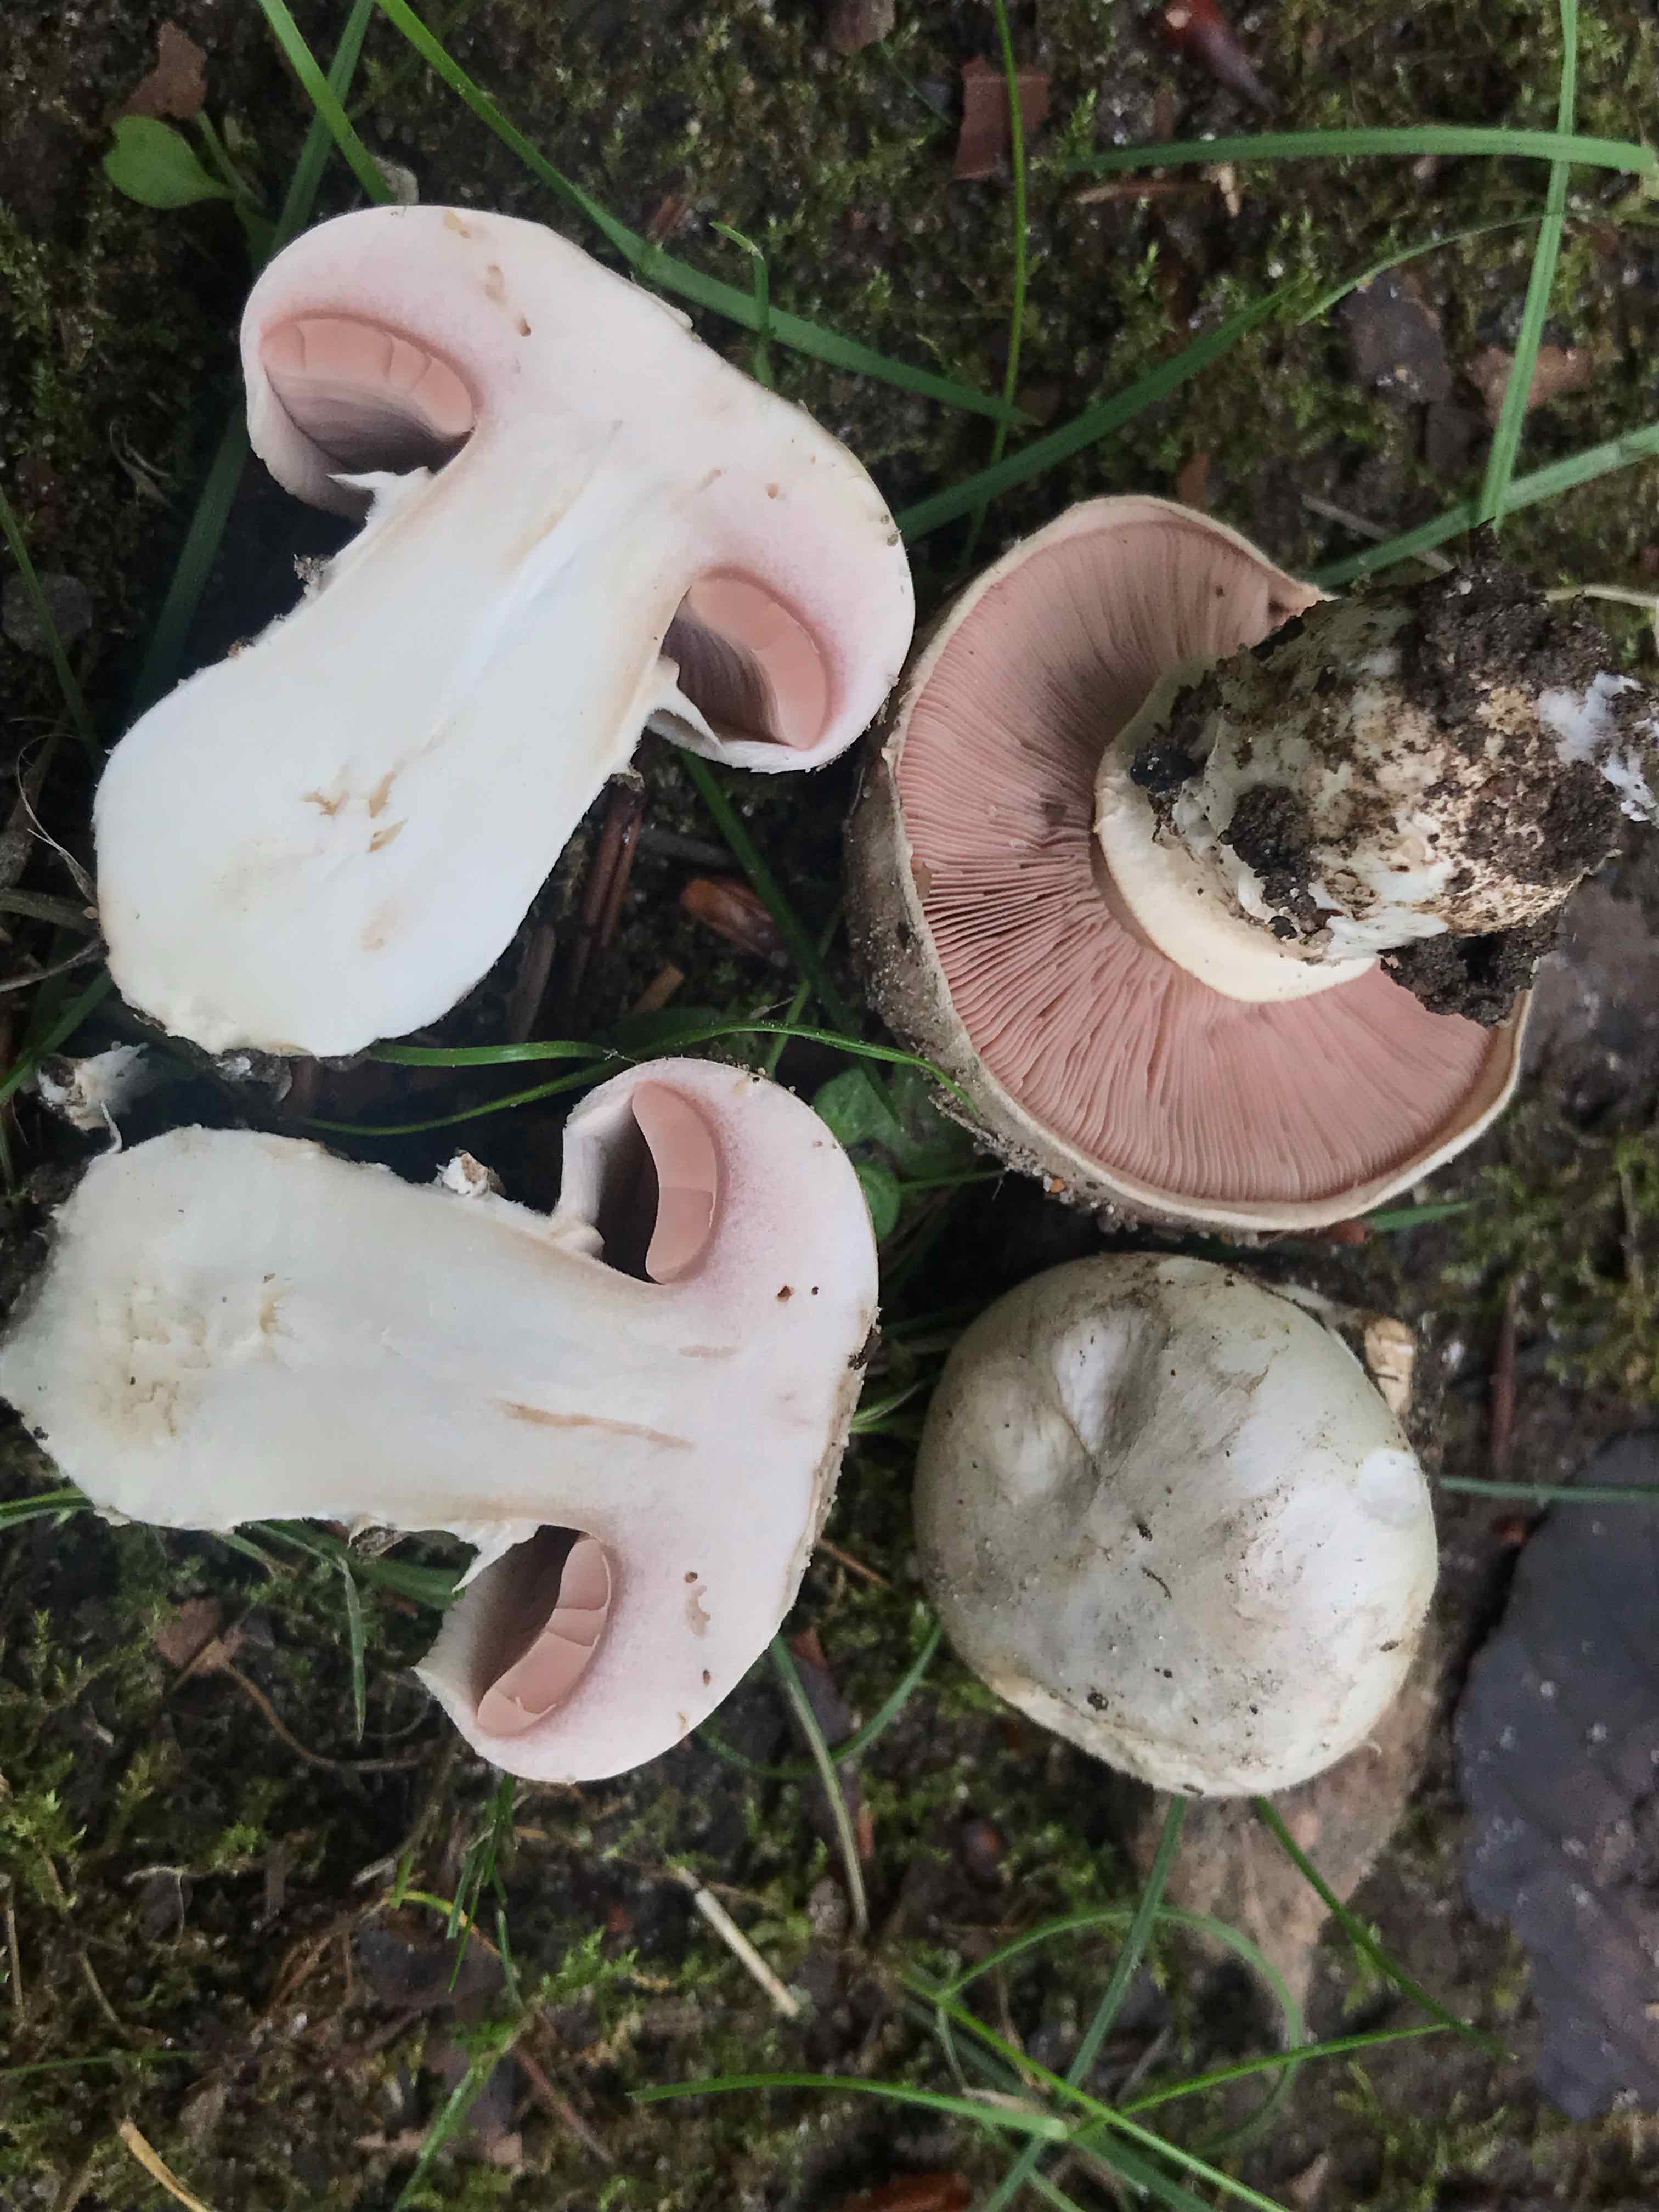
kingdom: Fungi
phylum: Basidiomycota
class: Agaricomycetes
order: Agaricales
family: Agaricaceae
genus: Agaricus
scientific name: Agaricus bitorquis
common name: vej-champignon
